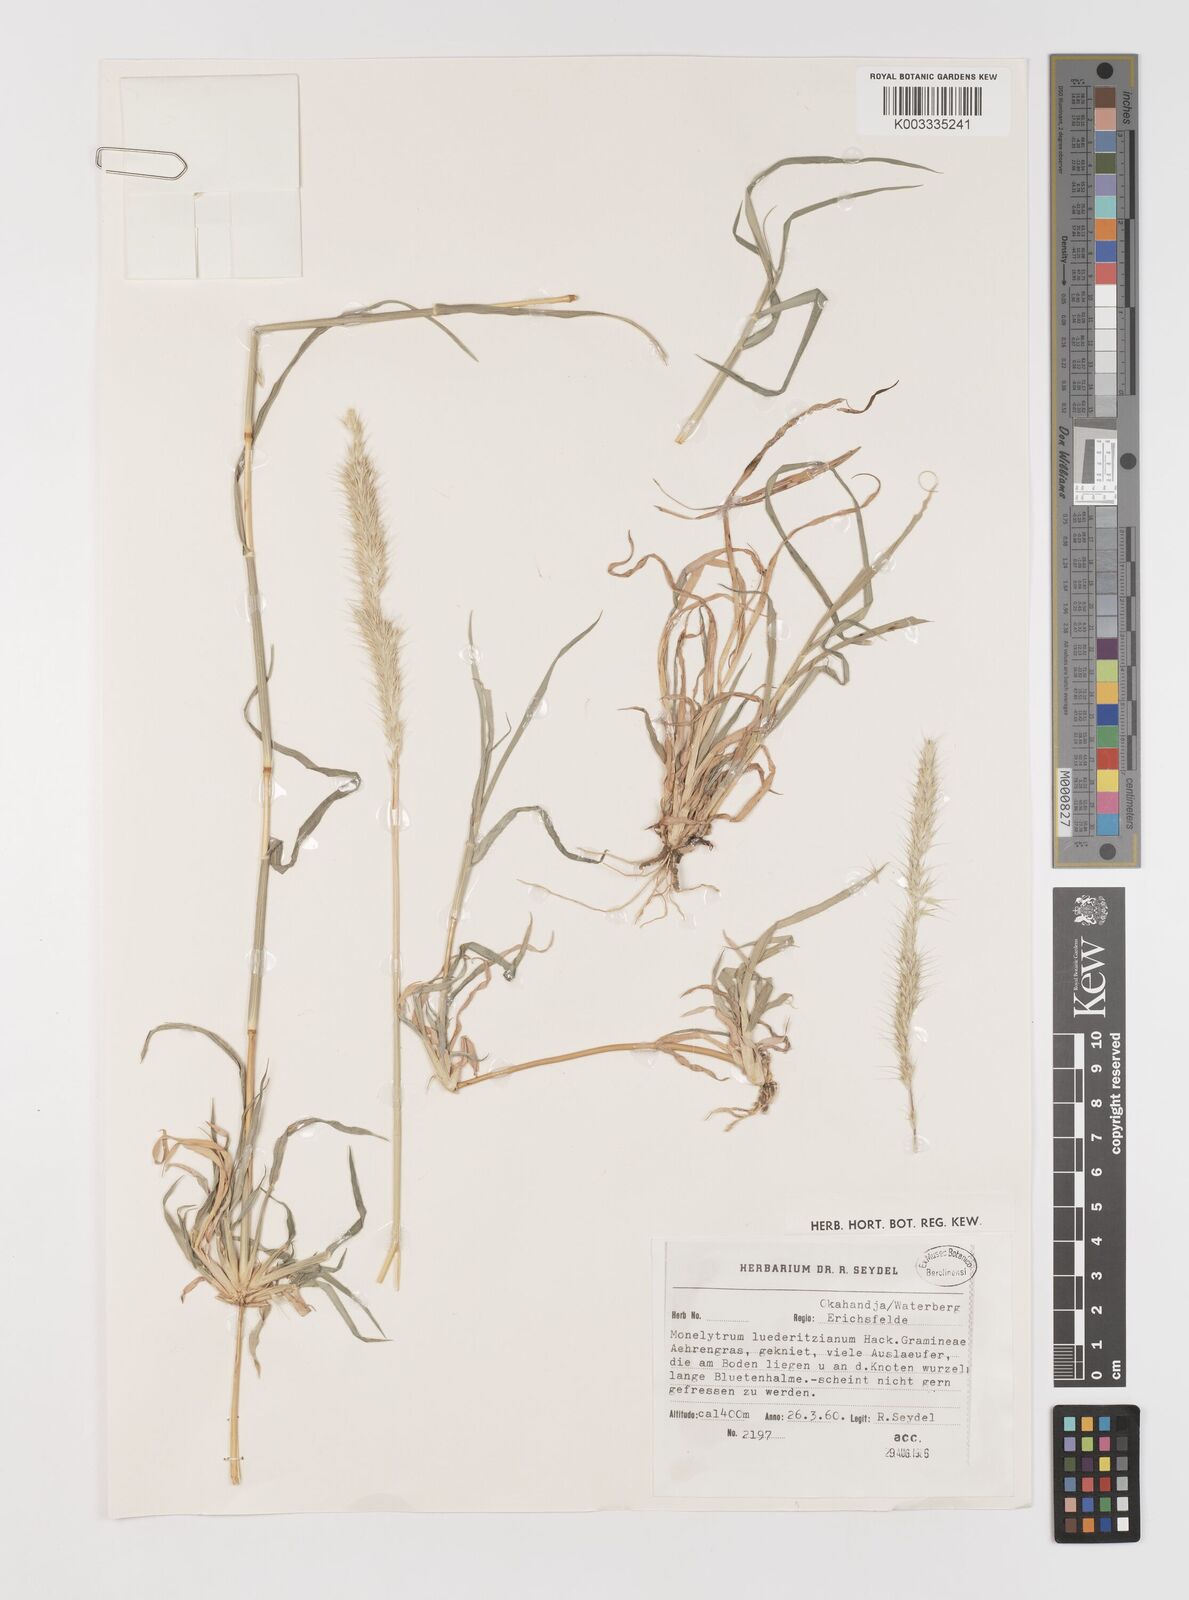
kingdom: Plantae
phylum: Tracheophyta
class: Liliopsida
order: Poales
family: Poaceae
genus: Monelytrum
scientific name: Monelytrum luederitzianum
